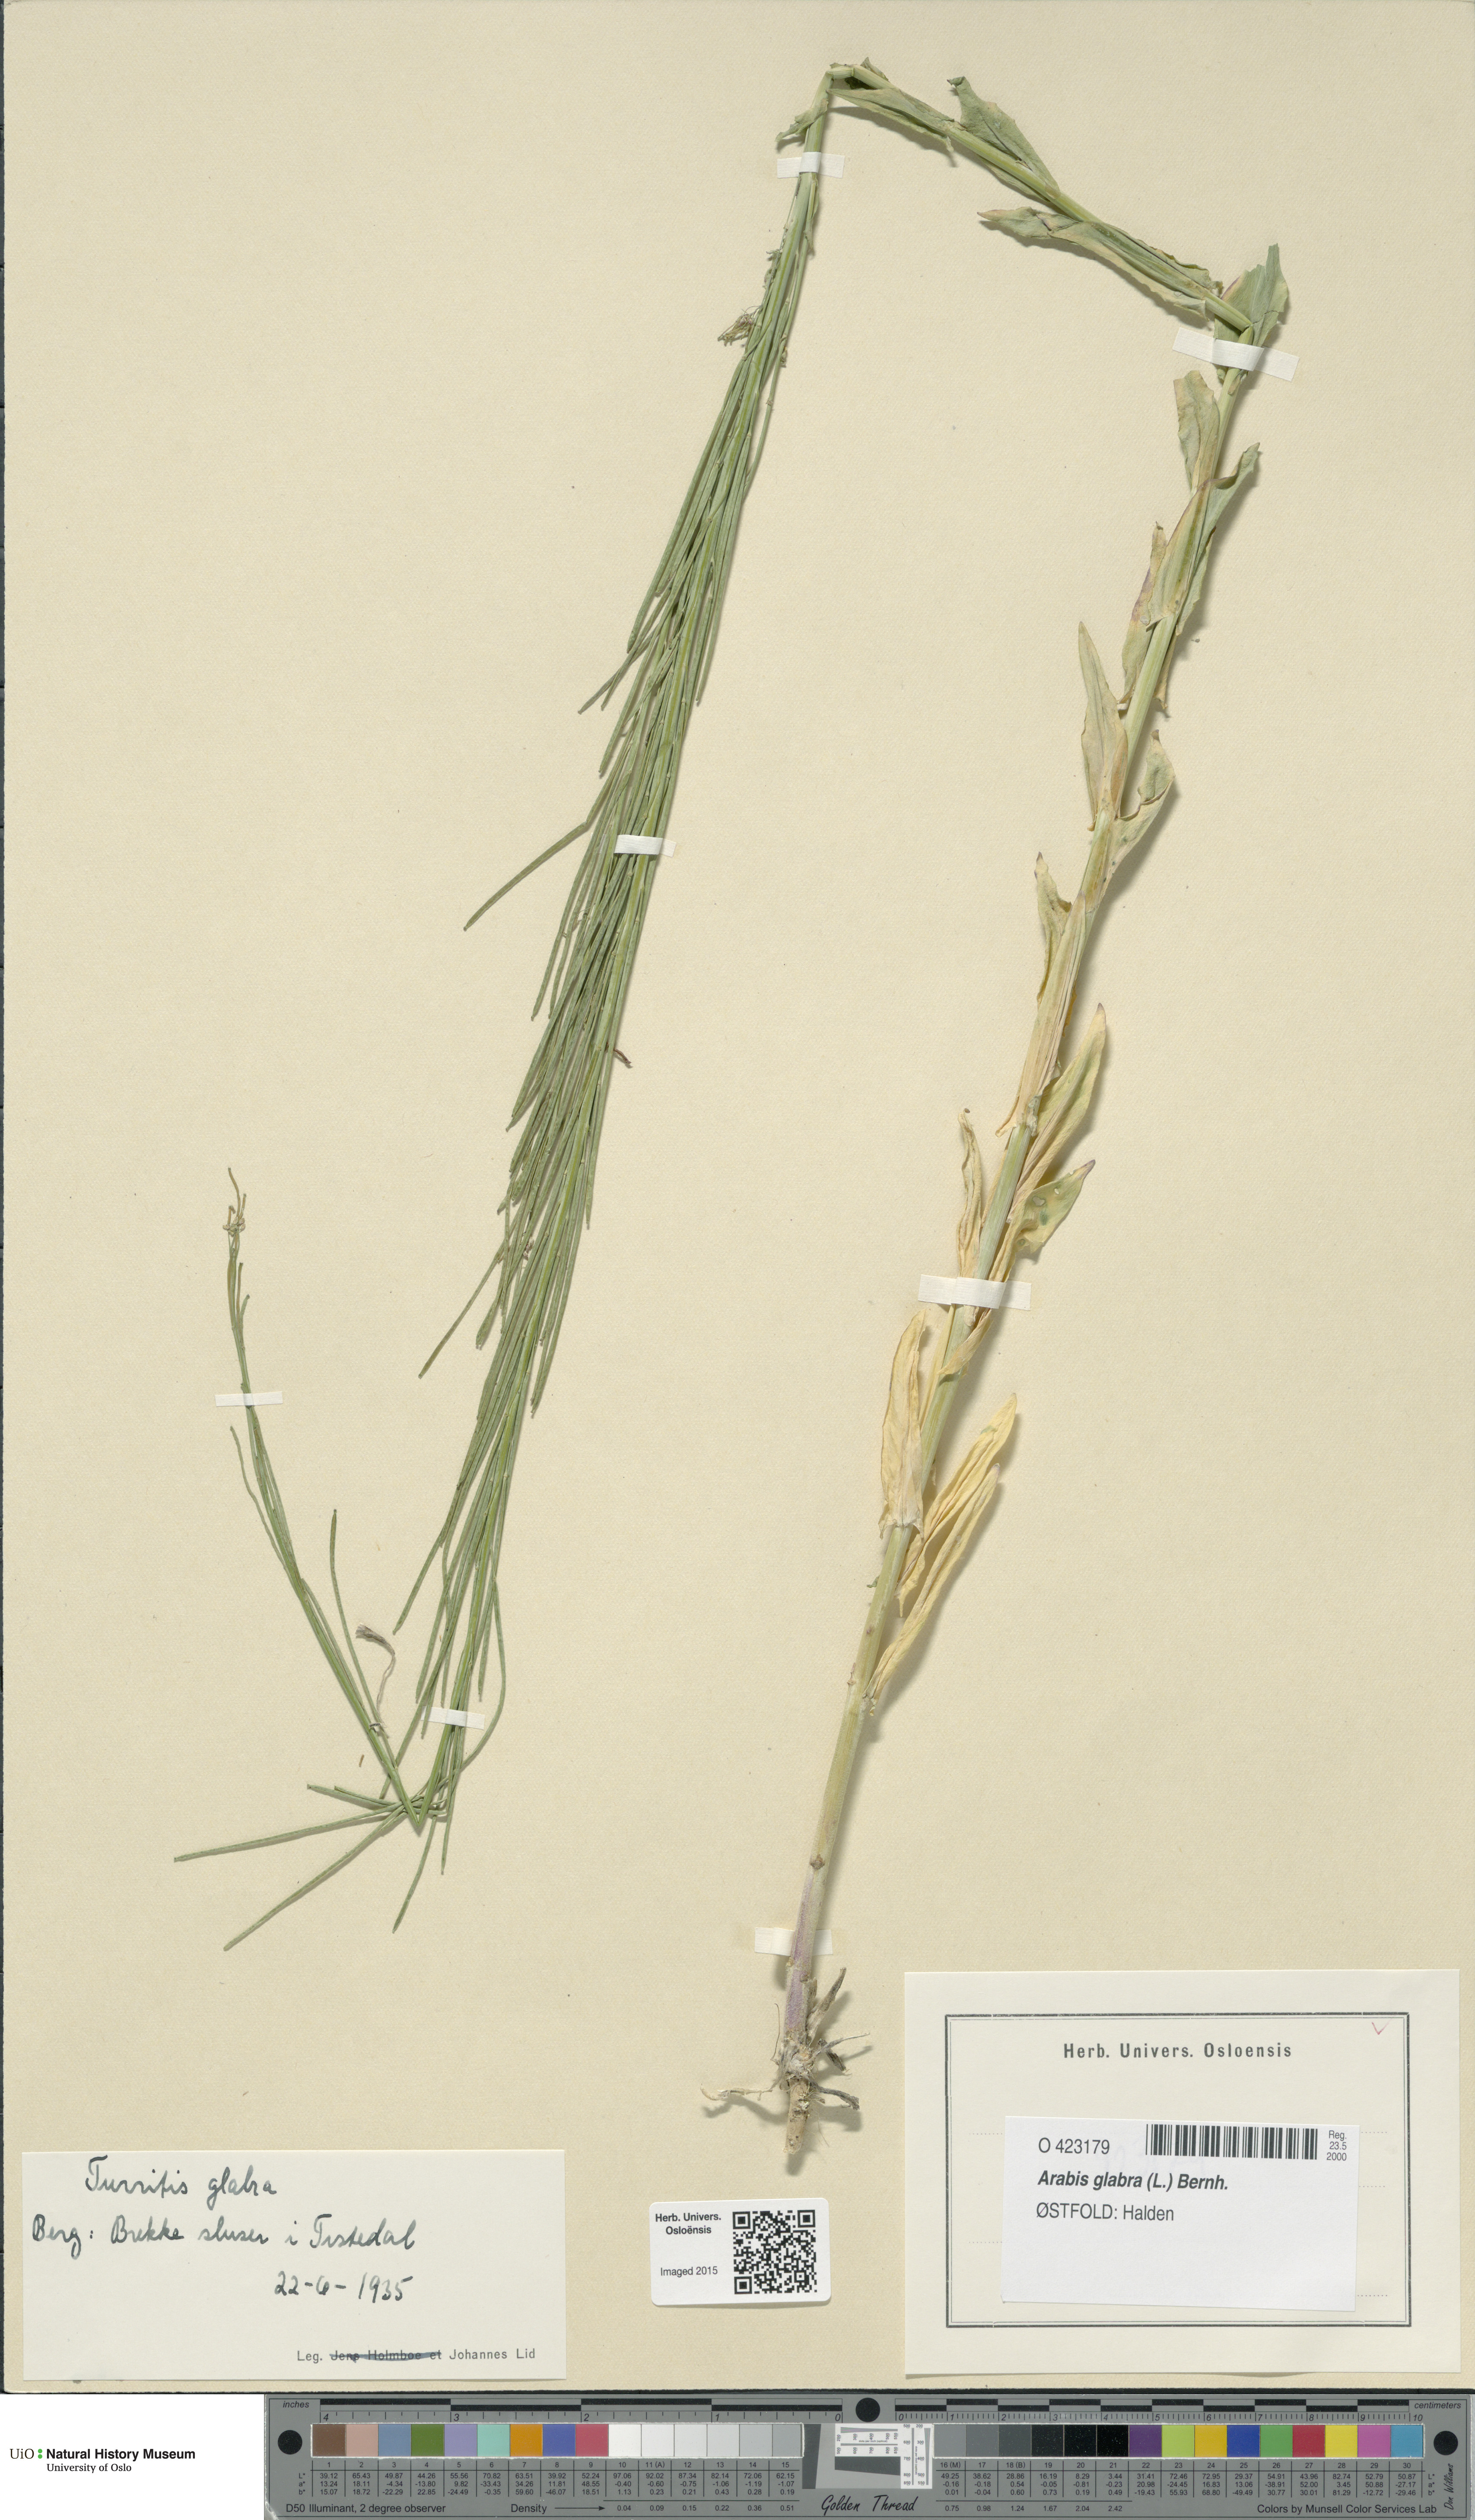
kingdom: Plantae
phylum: Tracheophyta
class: Magnoliopsida
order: Brassicales
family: Brassicaceae
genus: Turritis
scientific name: Turritis glabra
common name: Tower rockcress
